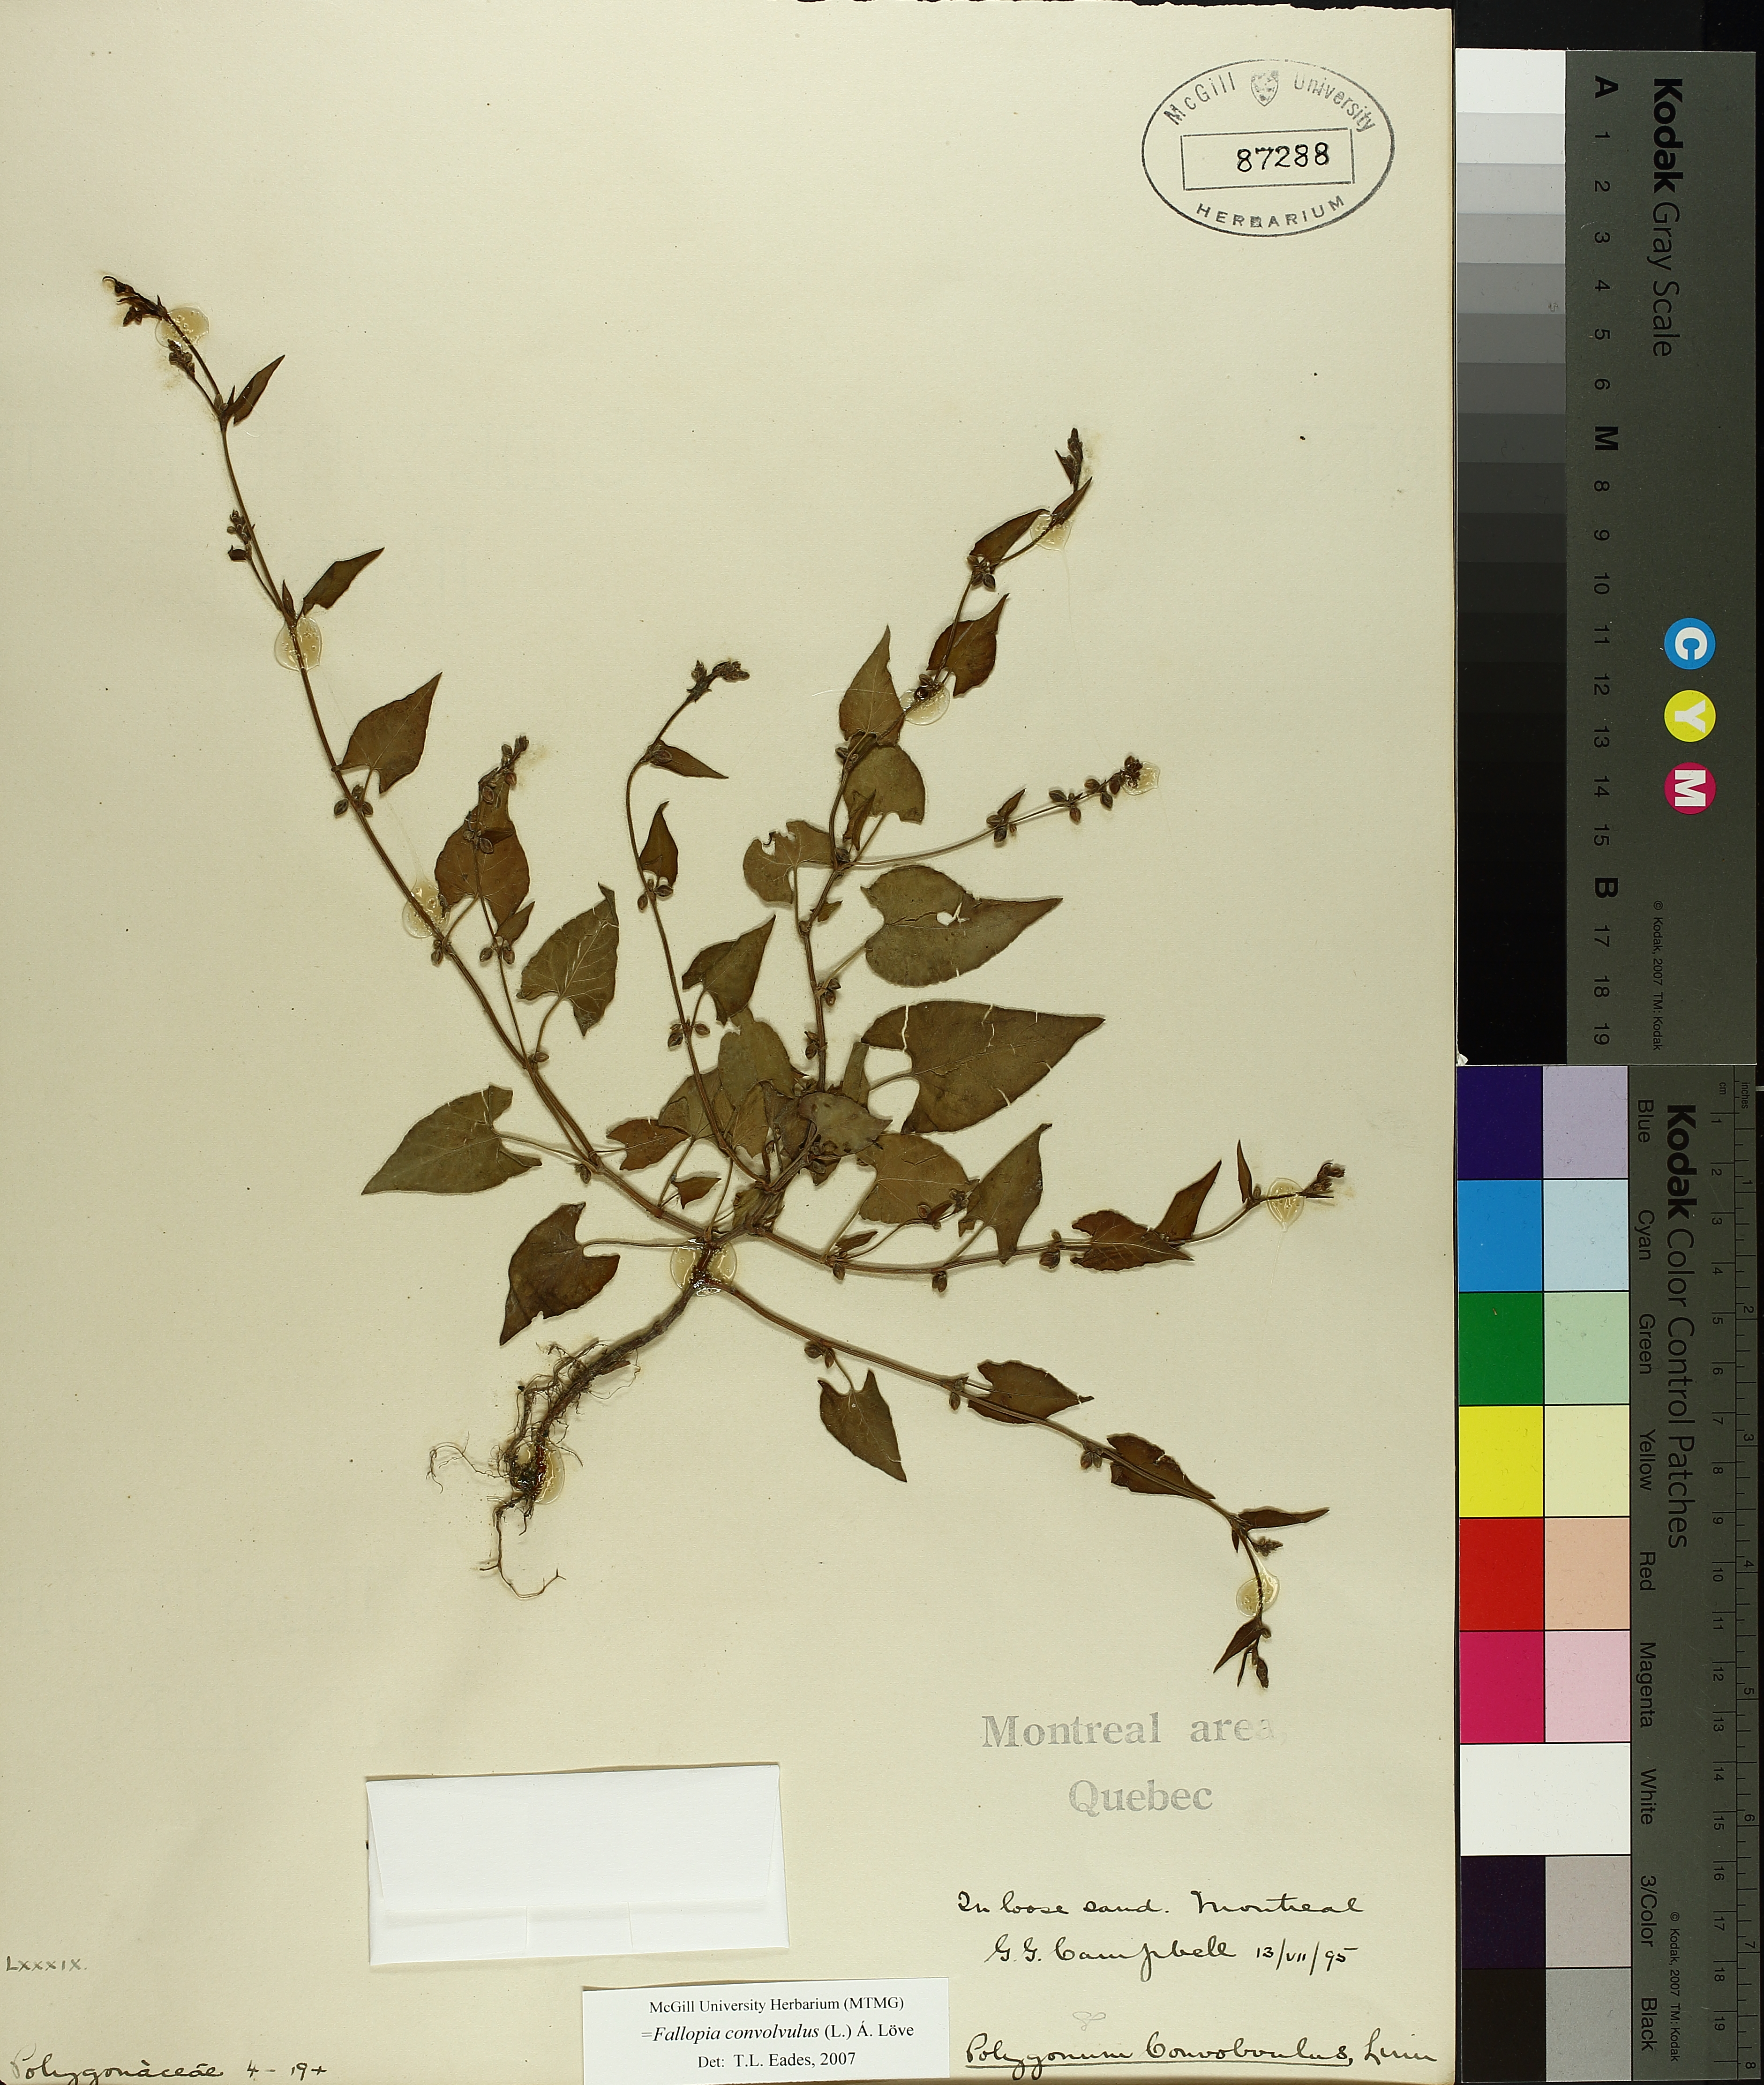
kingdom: Plantae
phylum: Tracheophyta
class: Magnoliopsida
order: Caryophyllales
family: Polygonaceae
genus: Fallopia
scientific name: Fallopia convolvulus
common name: Black bindweed
